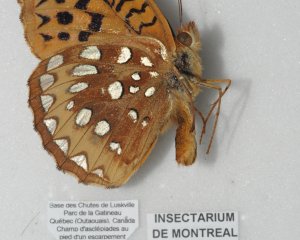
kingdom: Animalia
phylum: Arthropoda
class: Insecta
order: Lepidoptera
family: Nymphalidae
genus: Speyeria
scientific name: Speyeria cybele
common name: Great Spangled Fritillary
